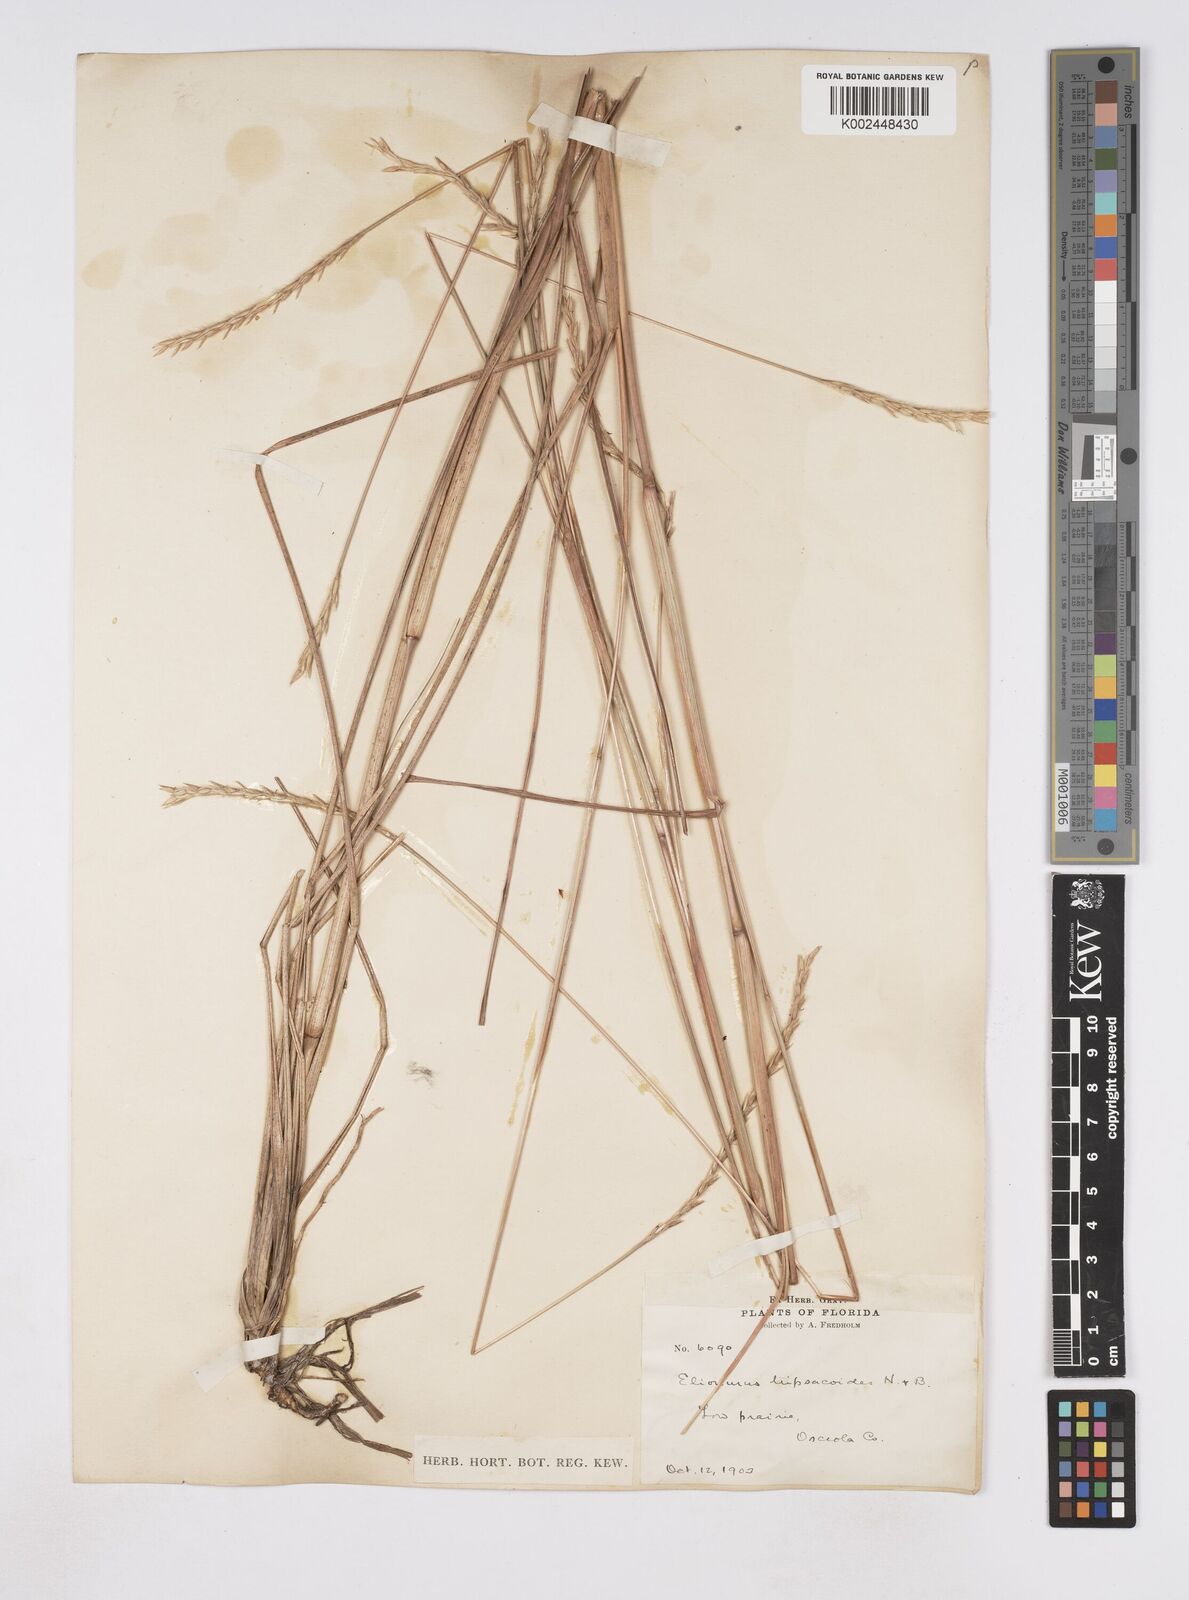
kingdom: Plantae
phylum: Tracheophyta
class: Liliopsida
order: Poales
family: Poaceae
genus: Elionurus
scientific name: Elionurus tripsacoides
